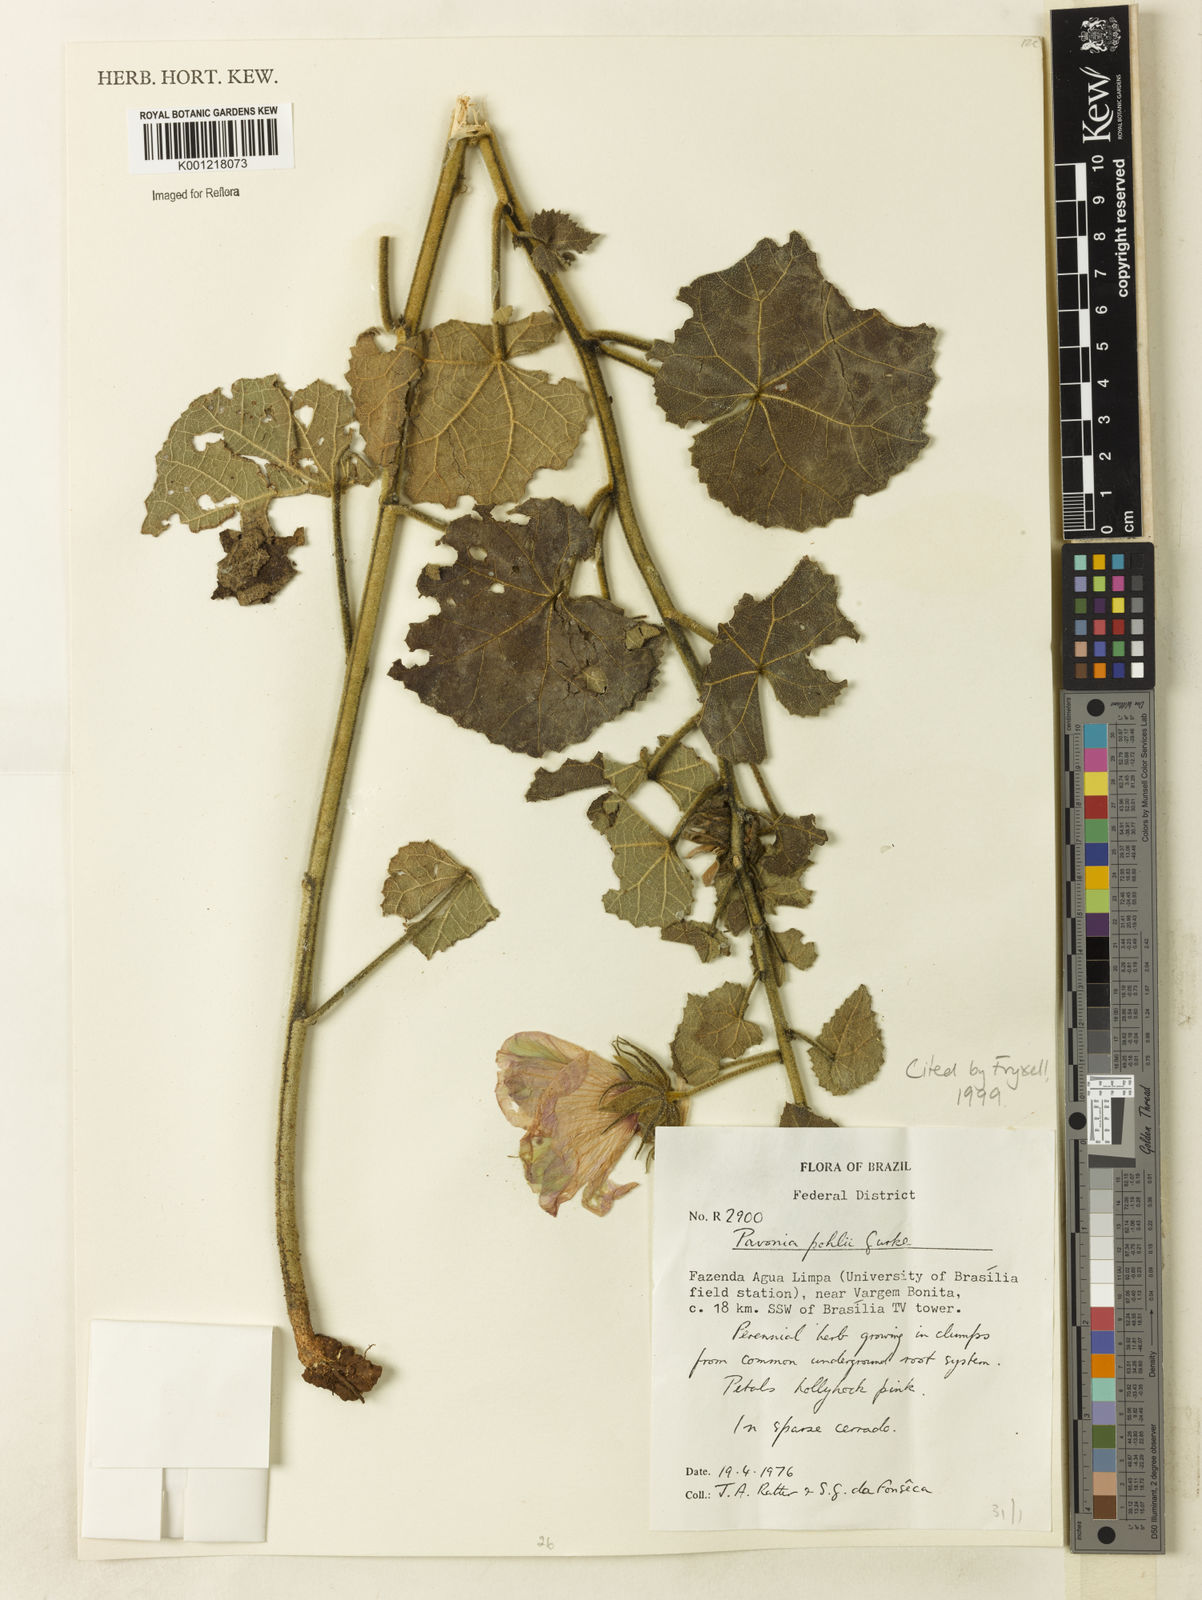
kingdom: Plantae
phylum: Tracheophyta
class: Magnoliopsida
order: Malvales
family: Malvaceae
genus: Pavonia
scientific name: Pavonia
